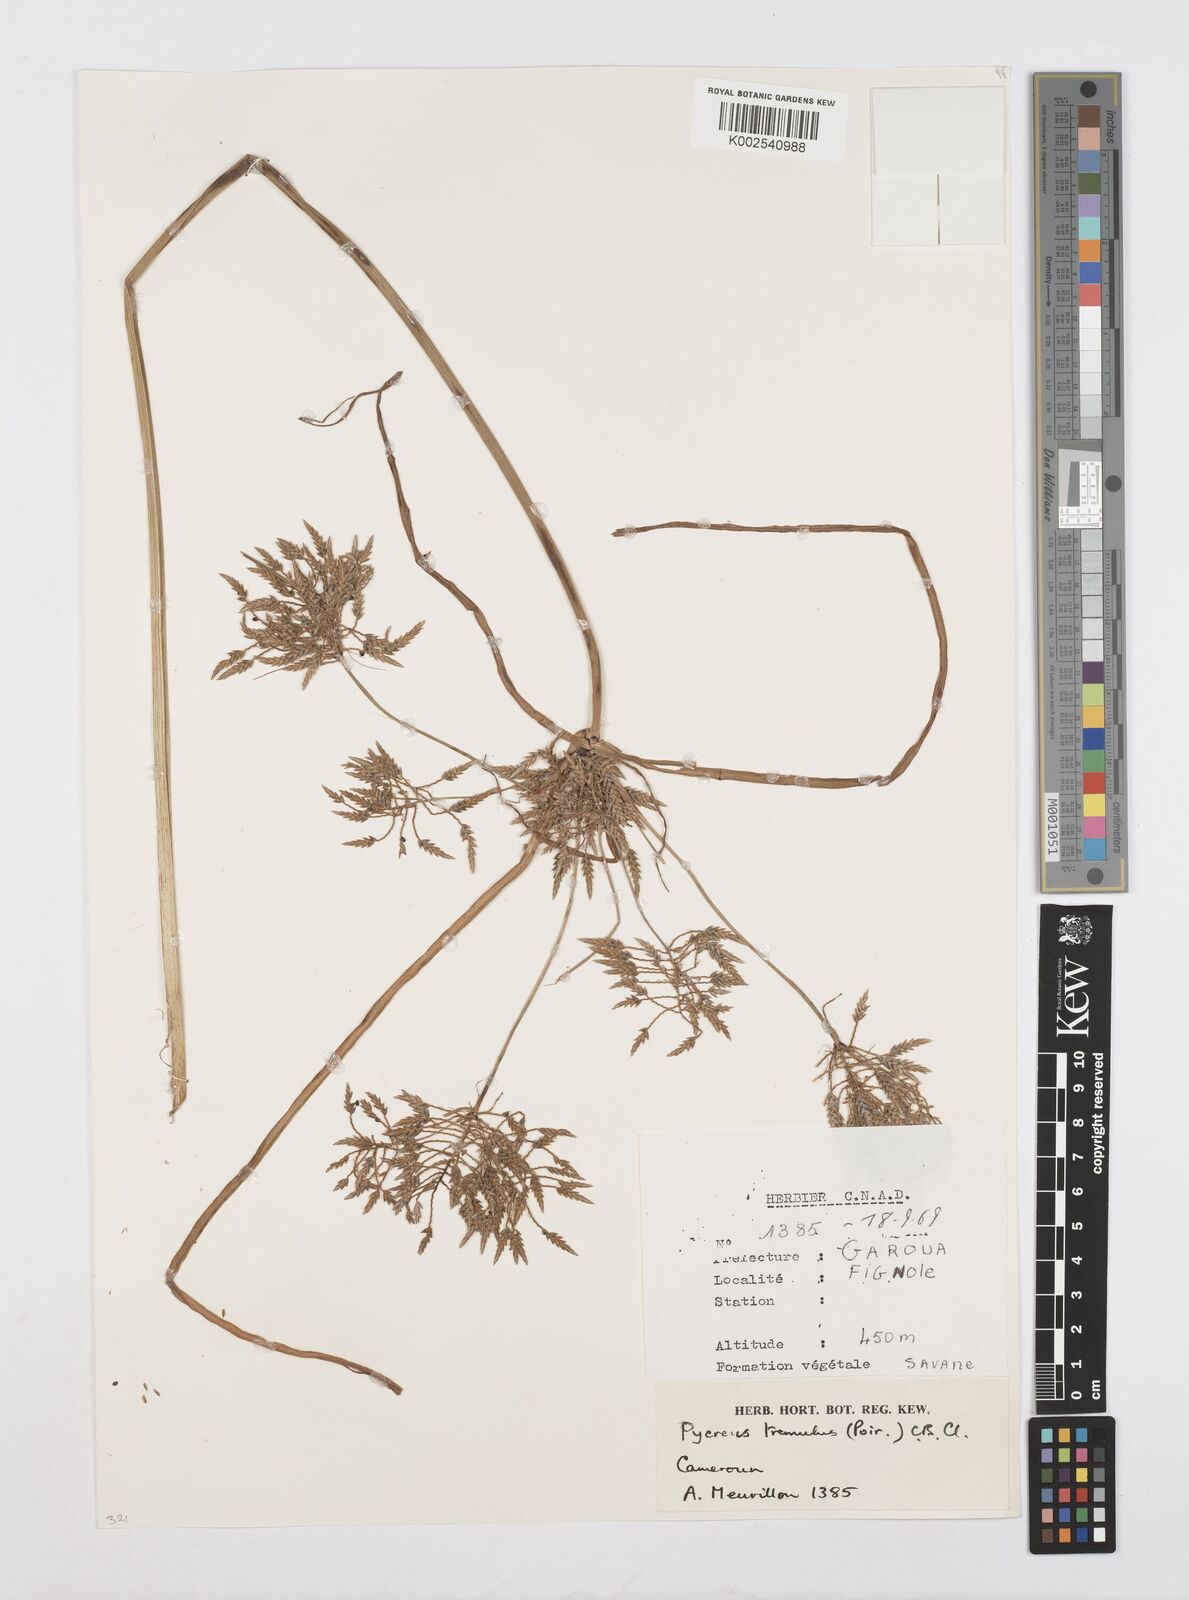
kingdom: Plantae
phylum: Tracheophyta
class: Liliopsida
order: Poales
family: Cyperaceae
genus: Cyperus
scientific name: Cyperus macrostachyos
